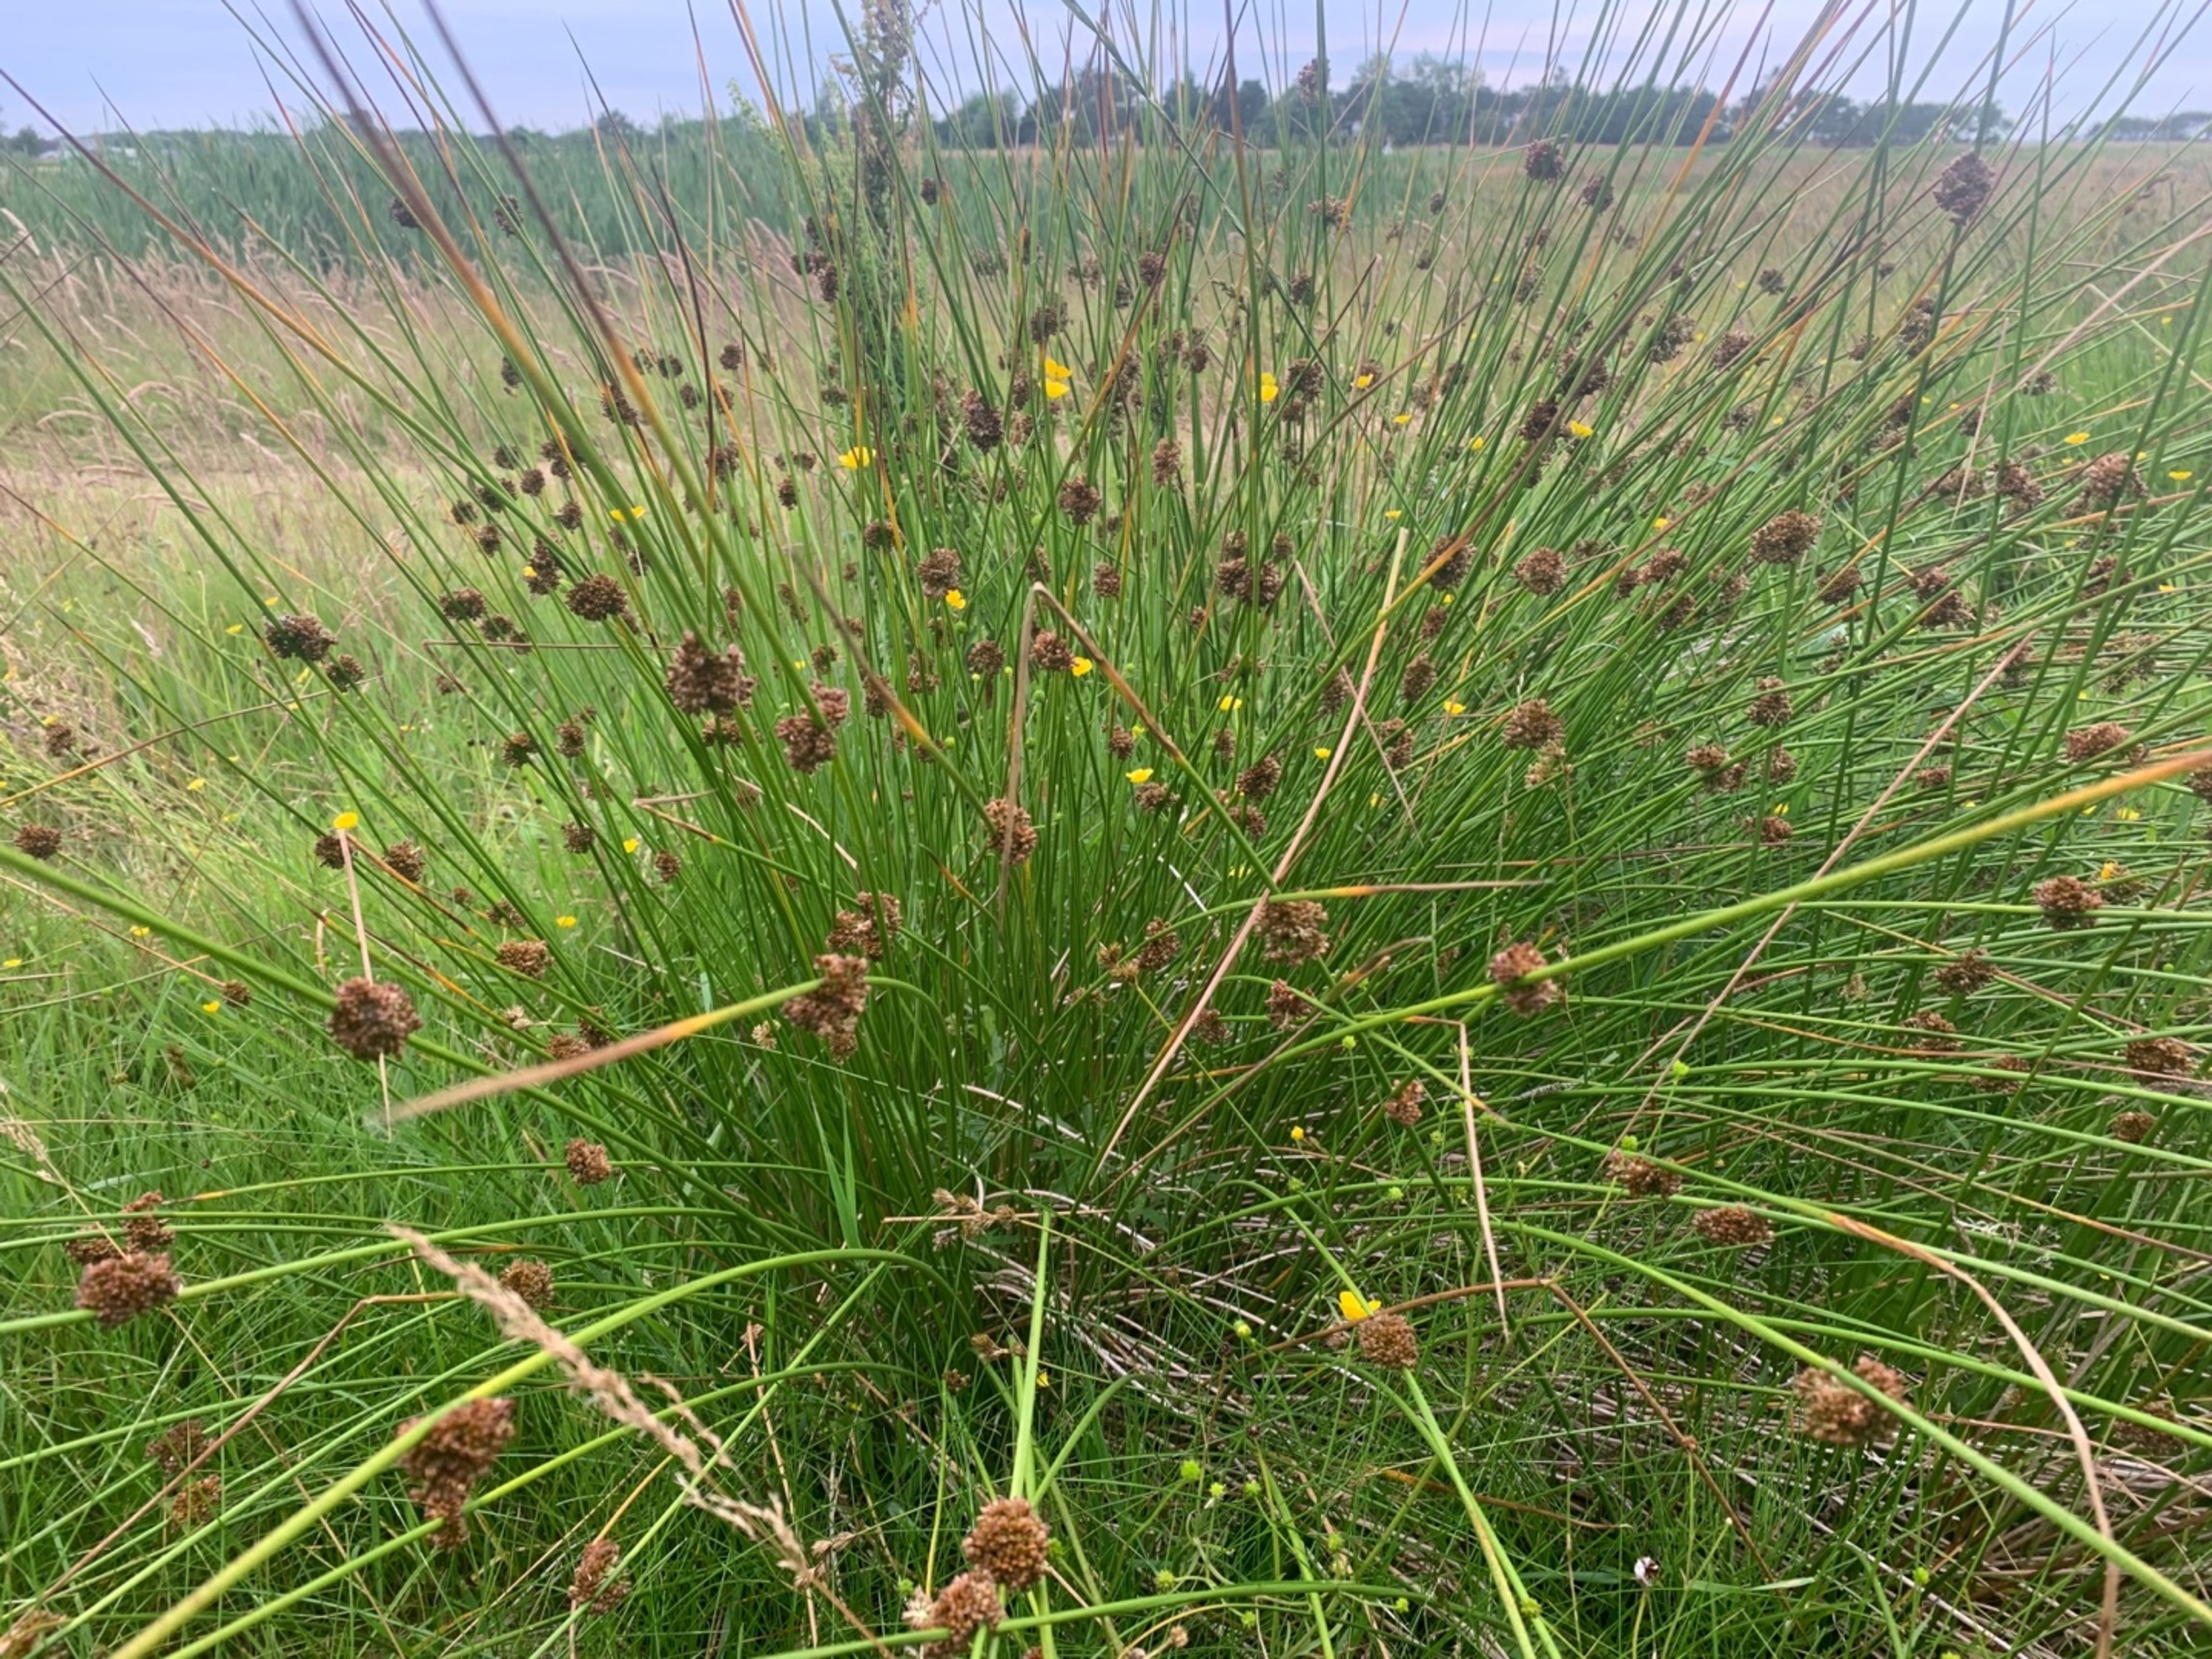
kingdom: Plantae
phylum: Tracheophyta
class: Liliopsida
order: Poales
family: Juncaceae
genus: Juncus
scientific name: Juncus effusus
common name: Lyse-siv
